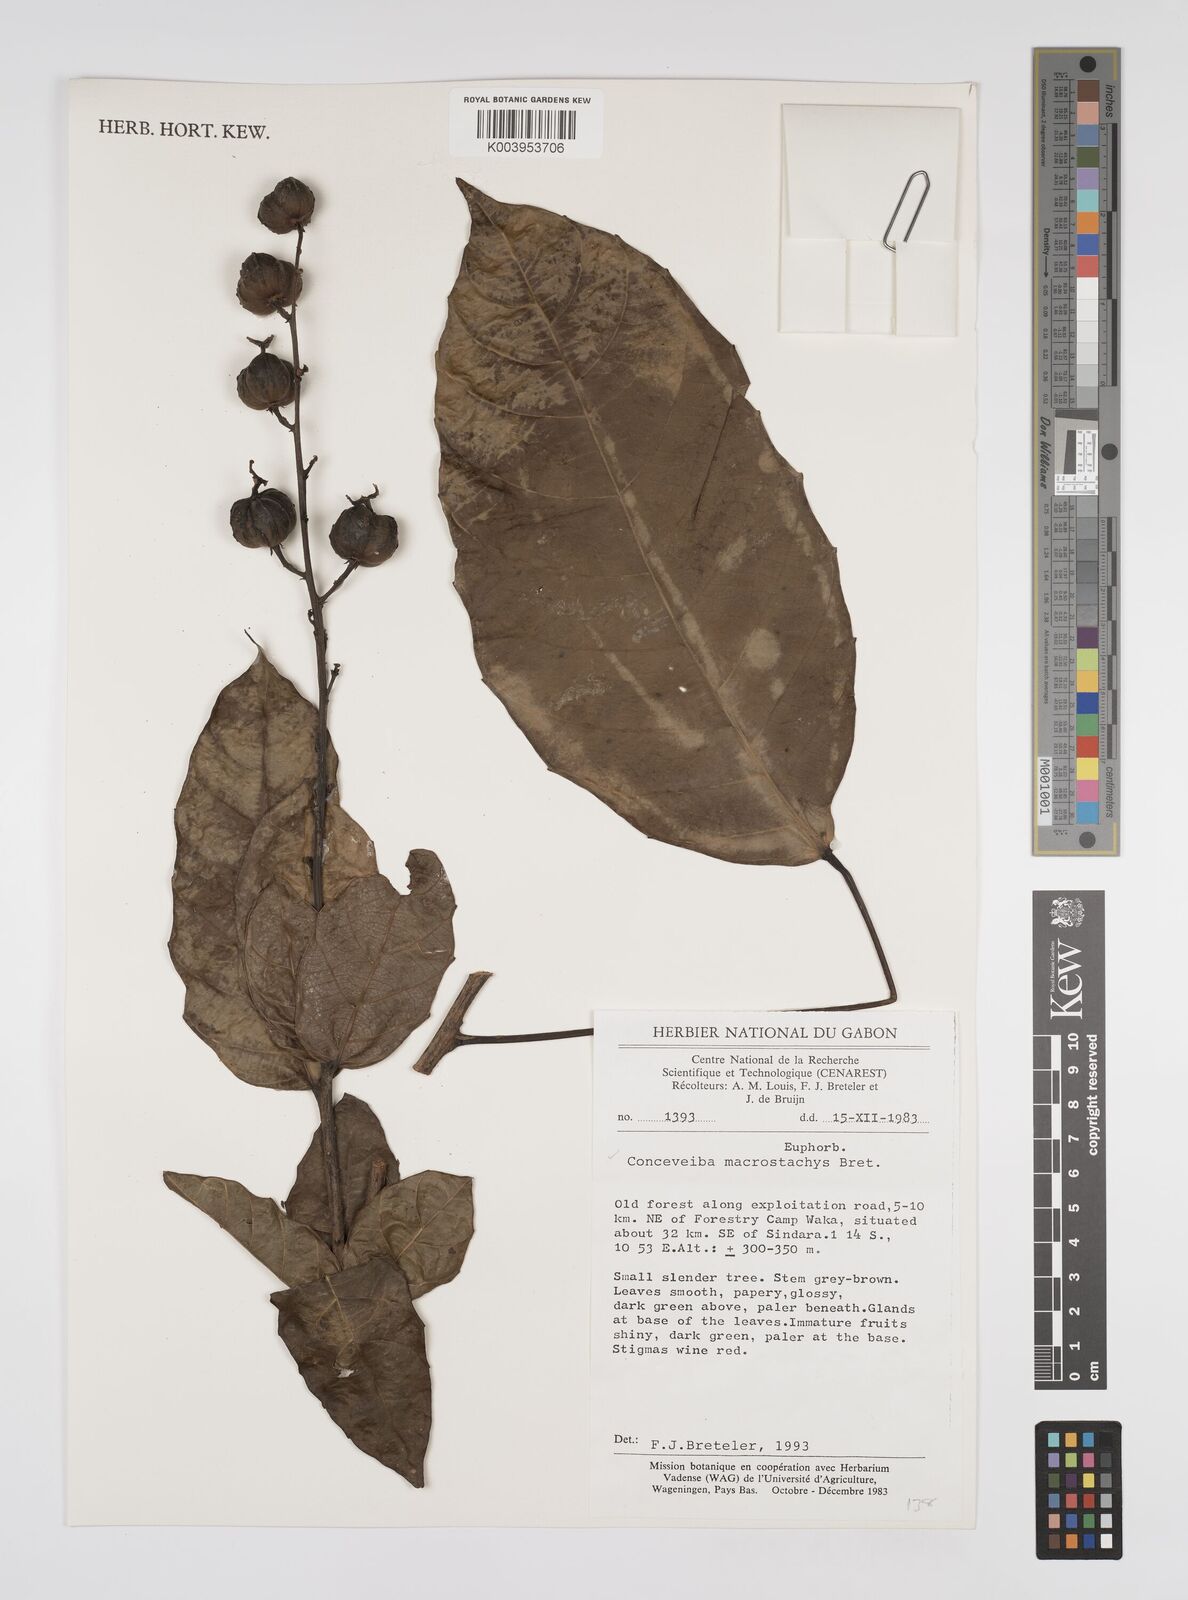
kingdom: Plantae
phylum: Tracheophyta
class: Magnoliopsida
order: Malpighiales
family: Euphorbiaceae
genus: Aubletiana
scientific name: Aubletiana macrostachys
